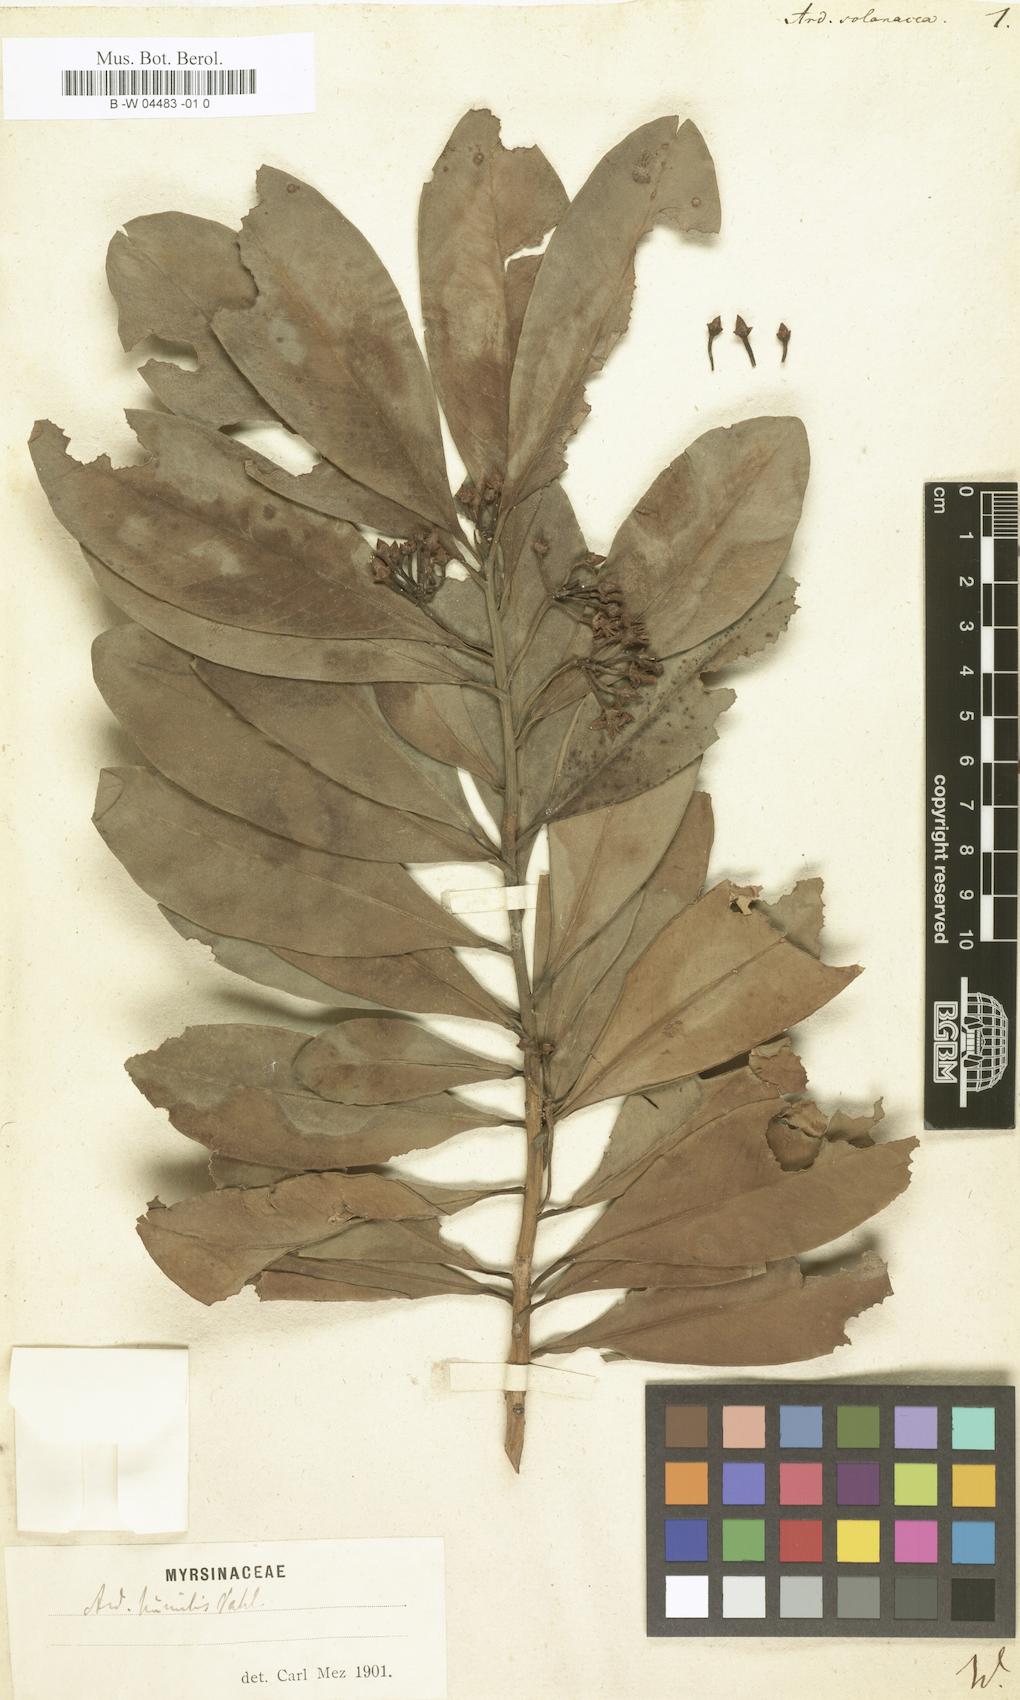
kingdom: Plantae
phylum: Tracheophyta
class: Magnoliopsida
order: Ericales
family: Primulaceae
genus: Ardisia
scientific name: Ardisia humilis
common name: Low shoebutton
